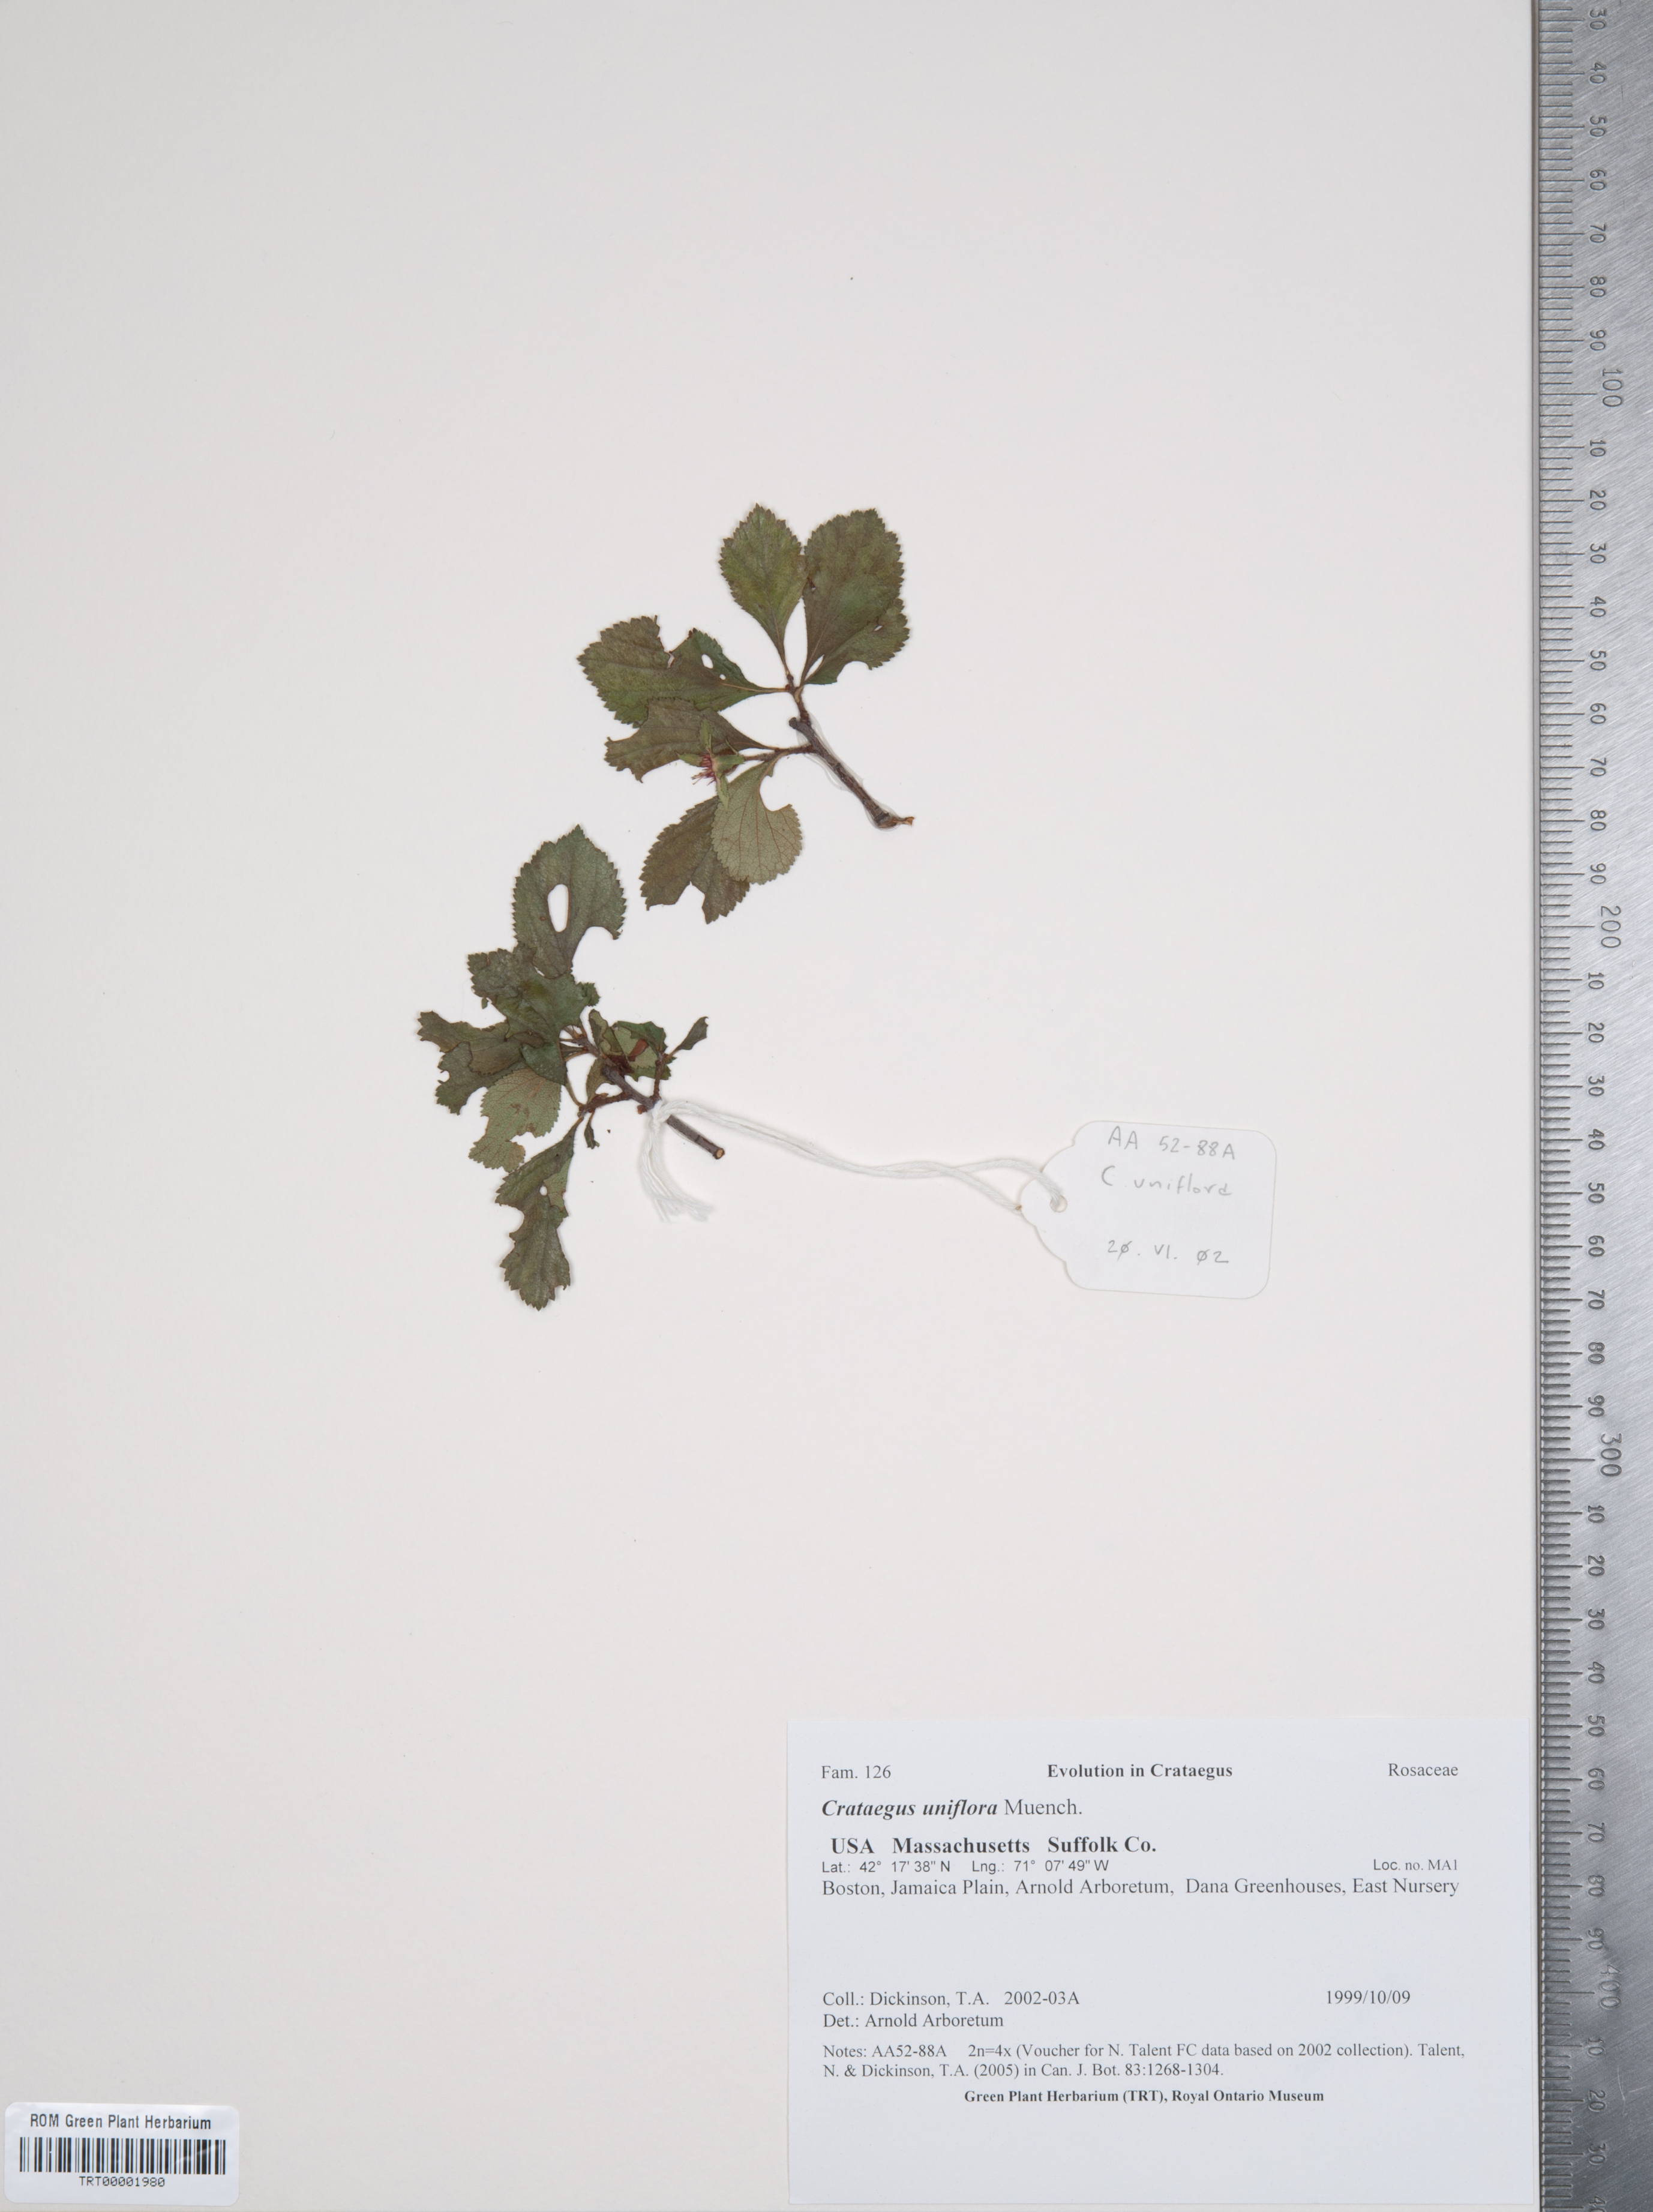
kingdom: Plantae
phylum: Tracheophyta
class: Magnoliopsida
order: Rosales
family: Rosaceae
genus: Crataegus
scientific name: Crataegus uniflora
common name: One-flower hawthorn
